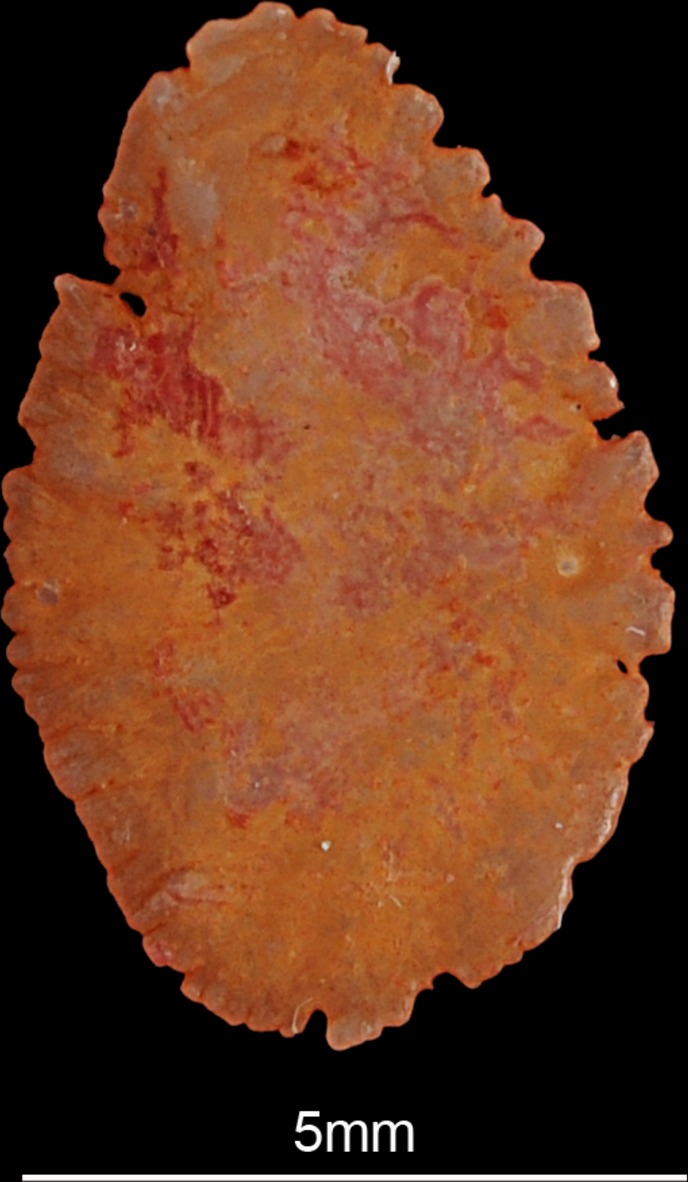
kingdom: Animalia
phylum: Chordata
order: Perciformes
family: Cichlidae
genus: Sarotherodon
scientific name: Sarotherodon galilaeus
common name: Mango tilapia
